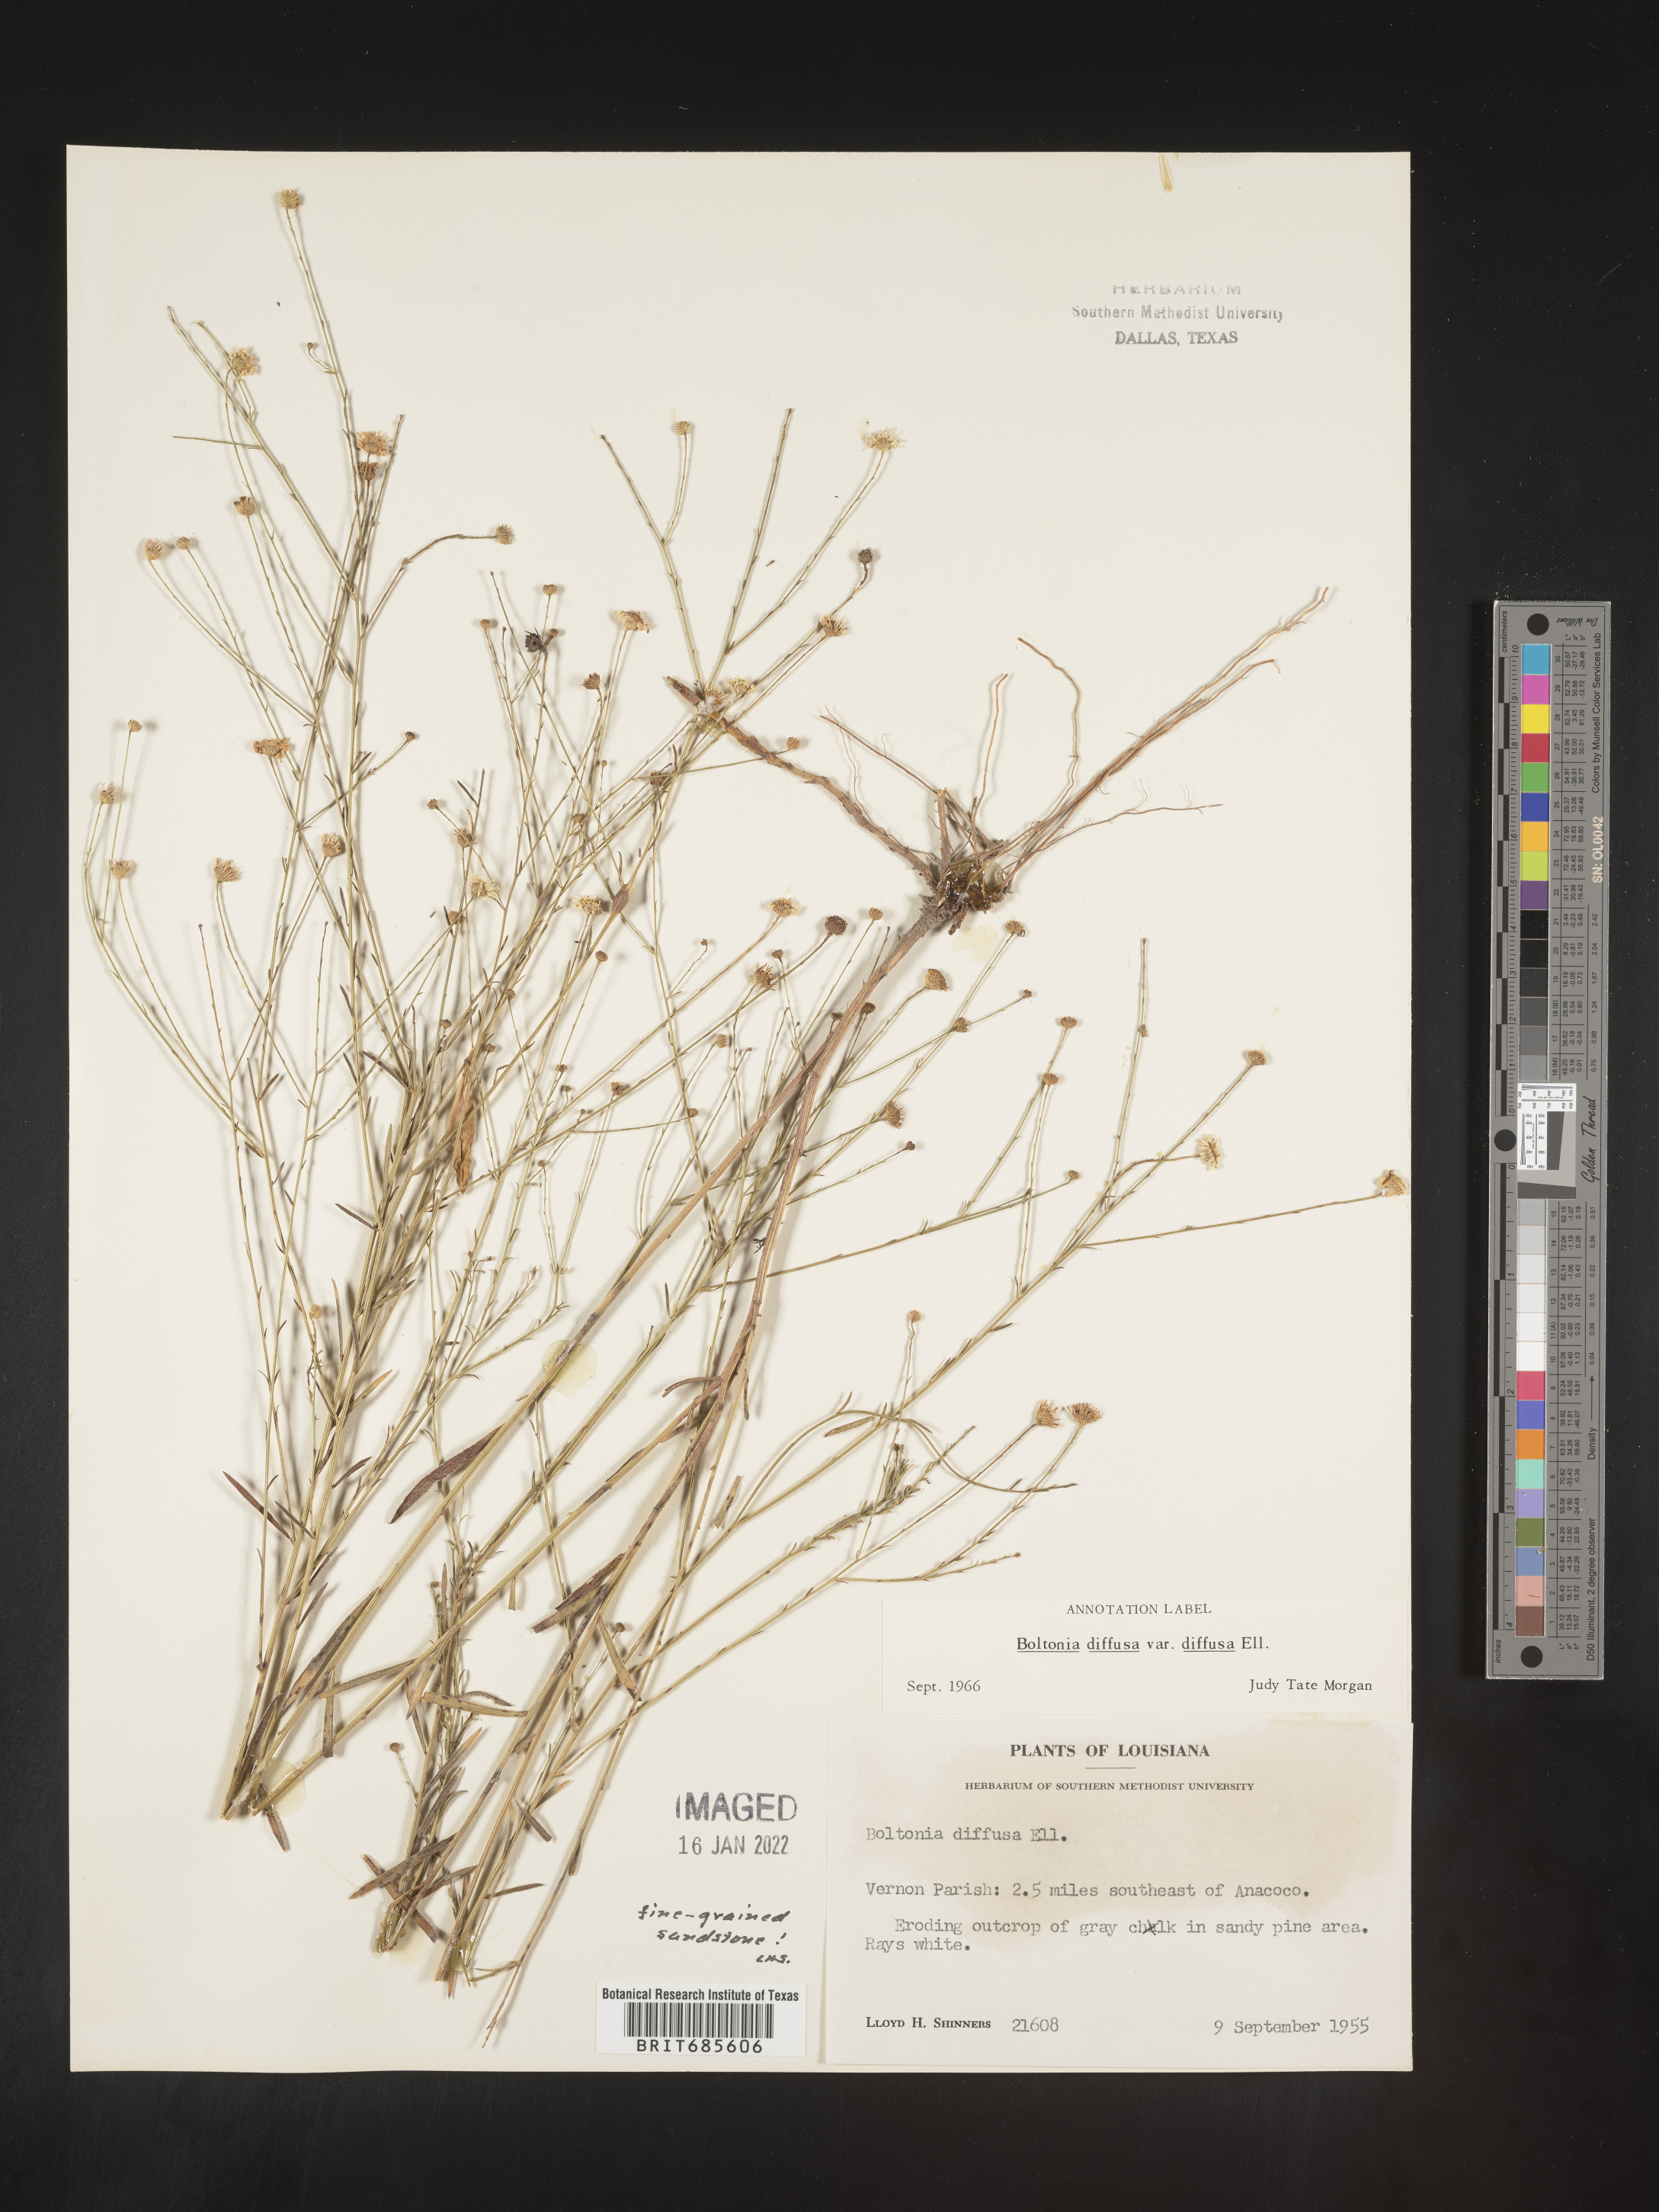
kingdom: Plantae
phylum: Tracheophyta
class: Magnoliopsida
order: Asterales
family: Asteraceae
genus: Boltonia
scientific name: Boltonia diffusa
